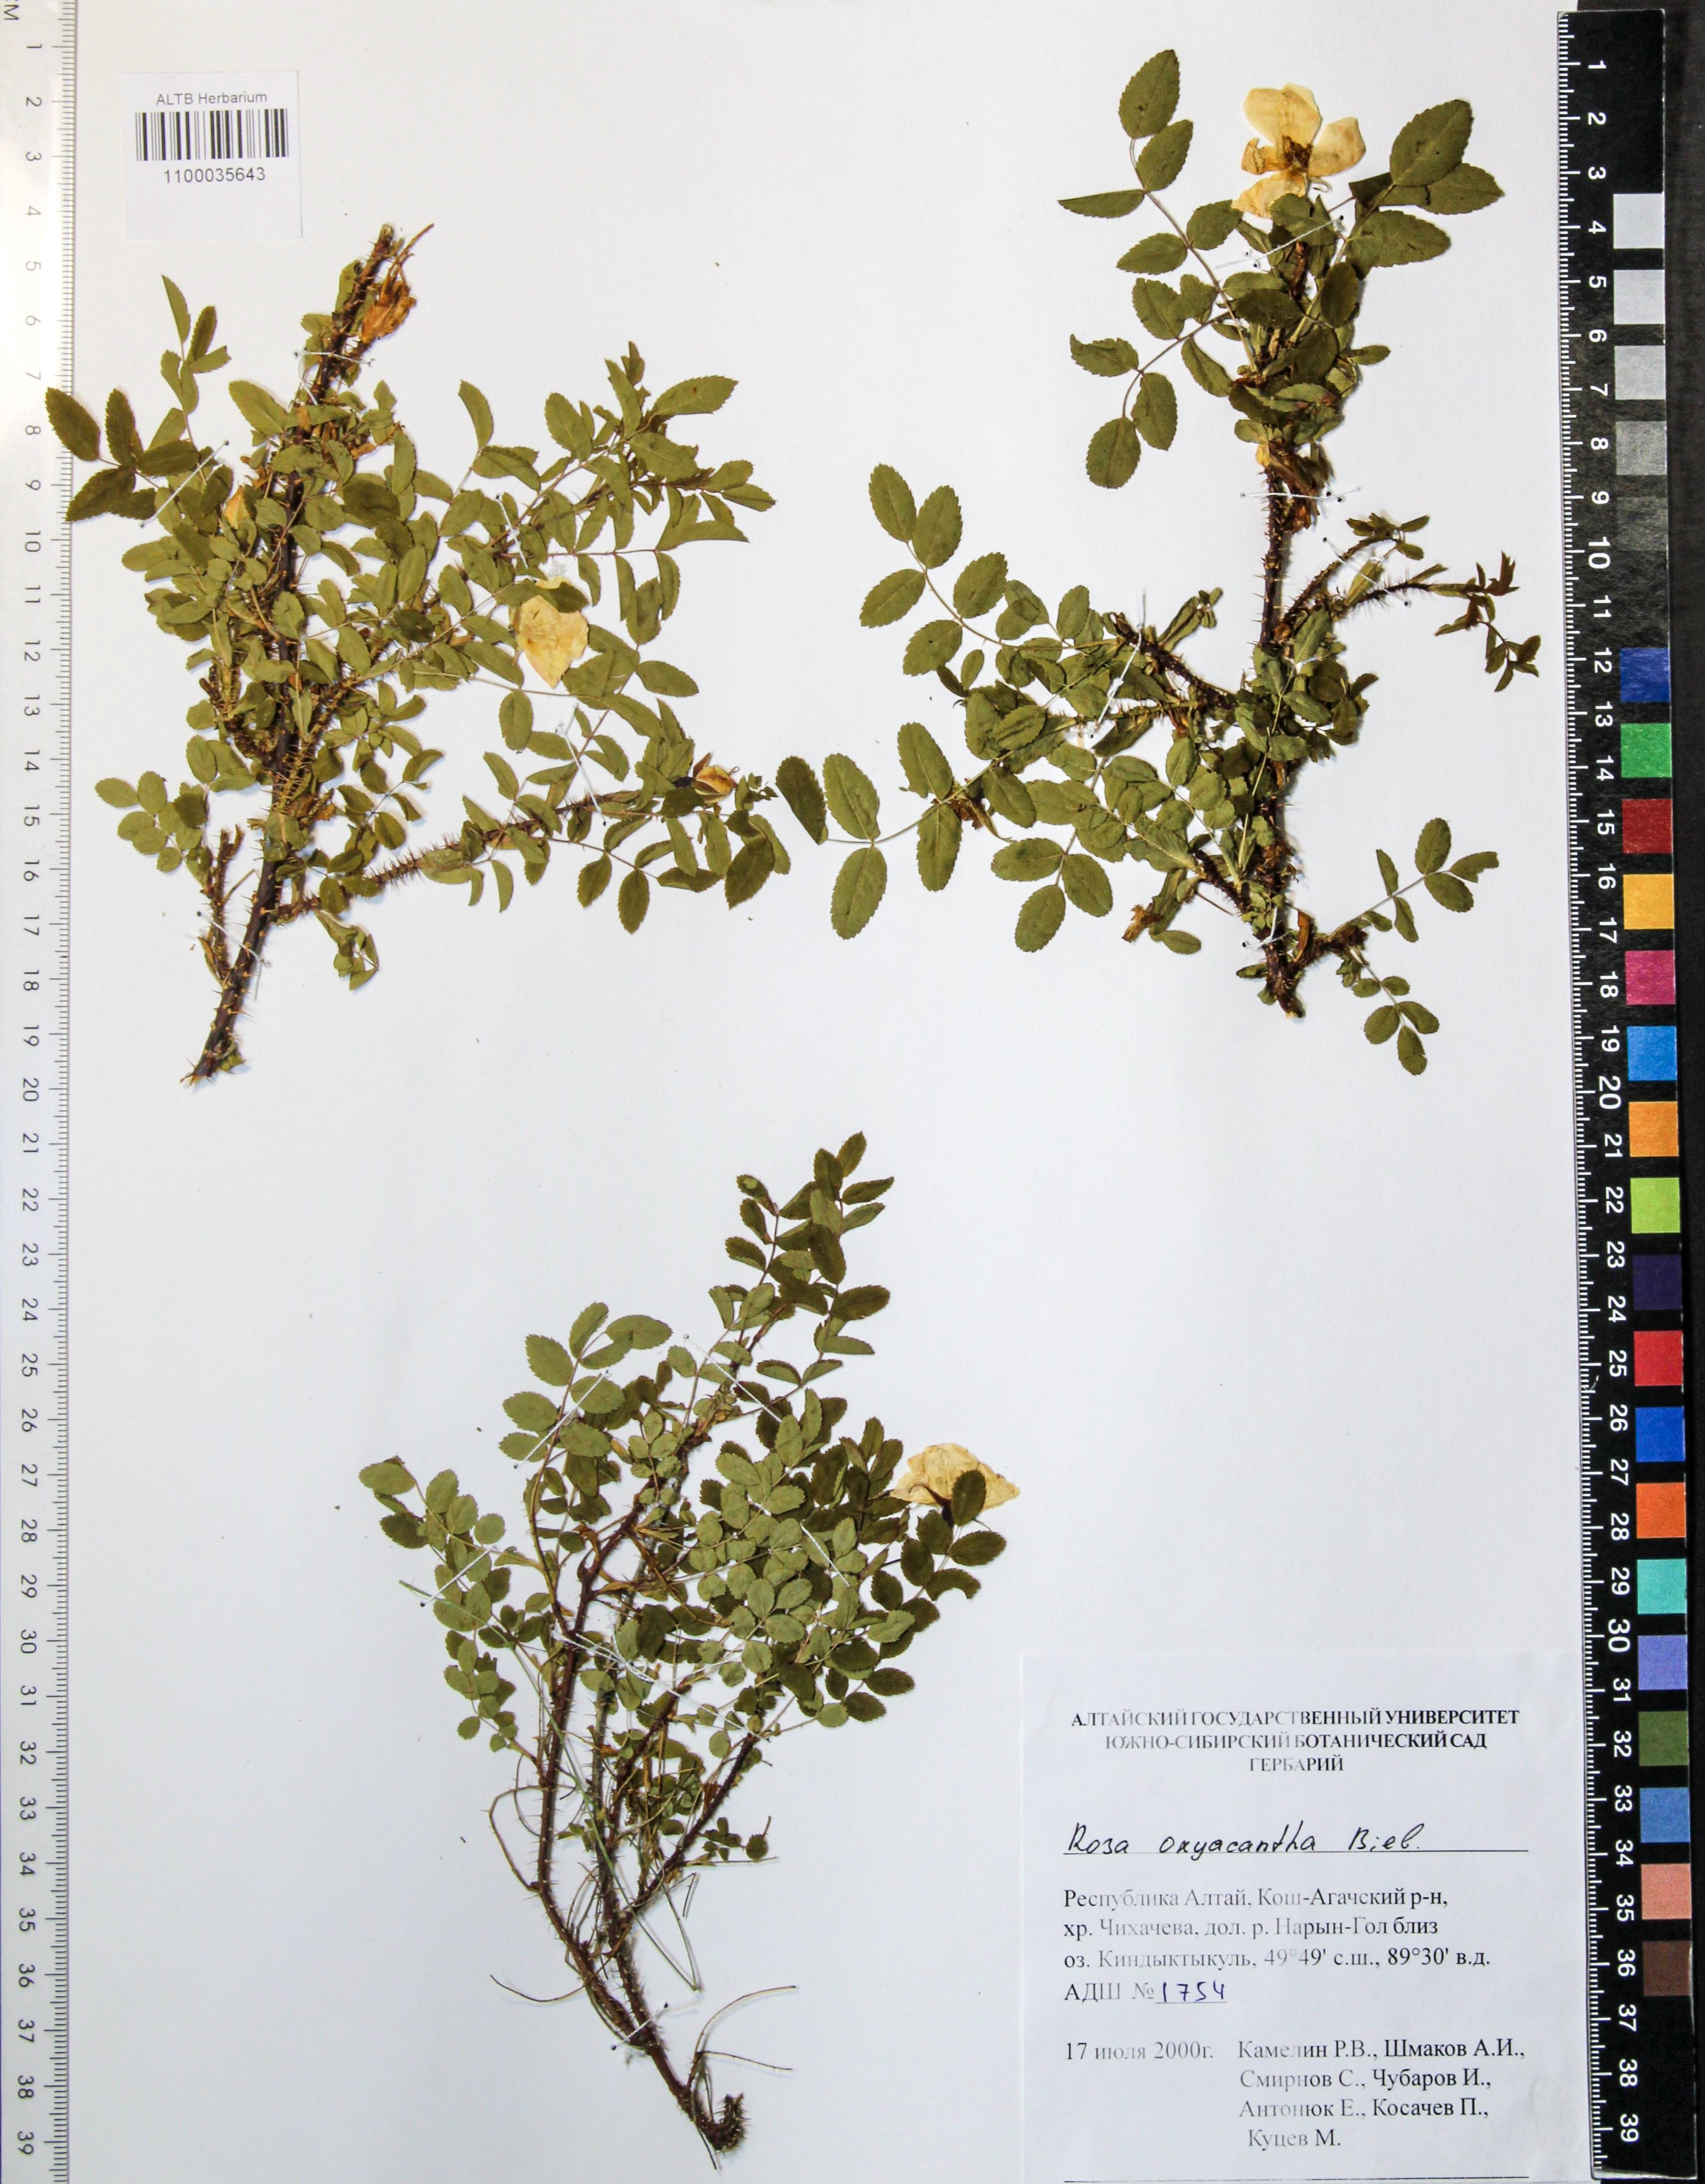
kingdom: Plantae
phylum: Tracheophyta
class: Magnoliopsida
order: Rosales
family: Rosaceae
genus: Rosa
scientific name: Rosa oxyacantha
